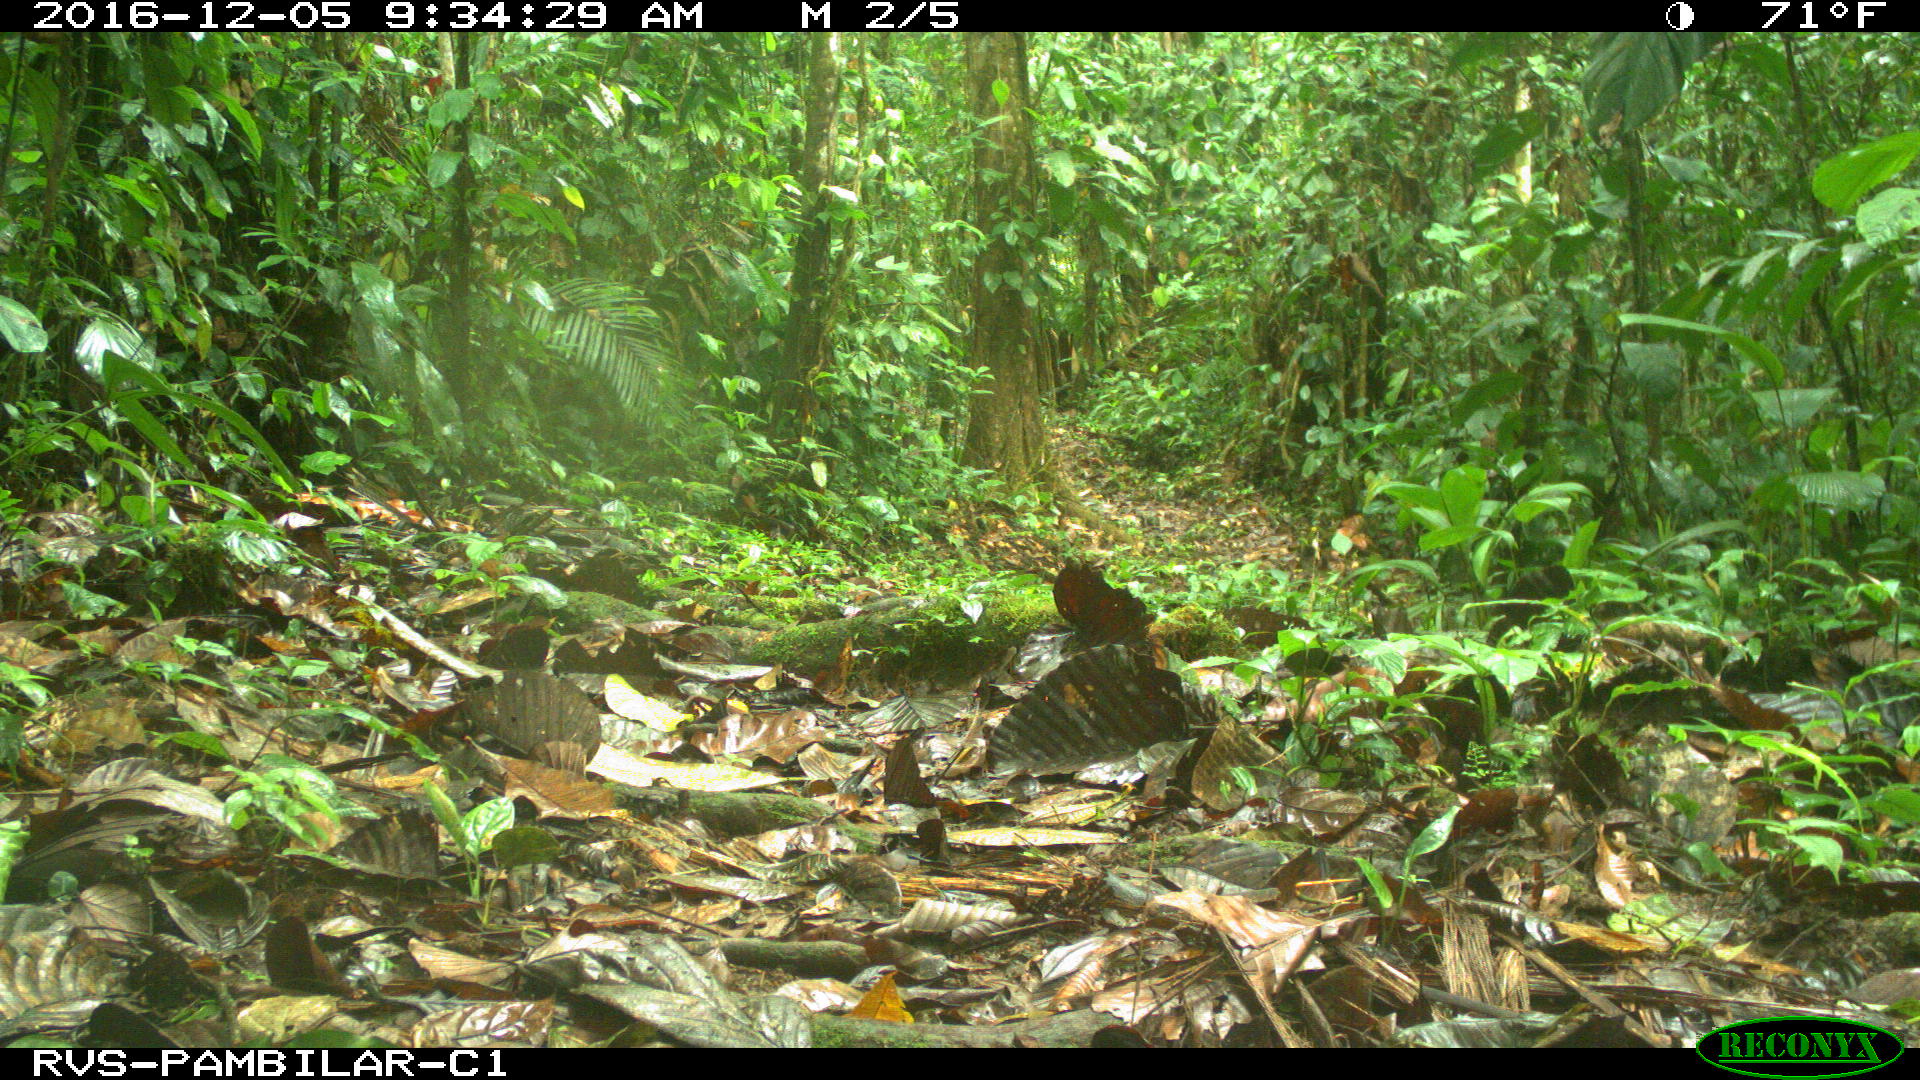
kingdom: Animalia
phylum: Chordata
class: Mammalia
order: Rodentia
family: Sciuridae
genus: Sciurus
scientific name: Sciurus granatensis
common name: Red-tailed squirrel
